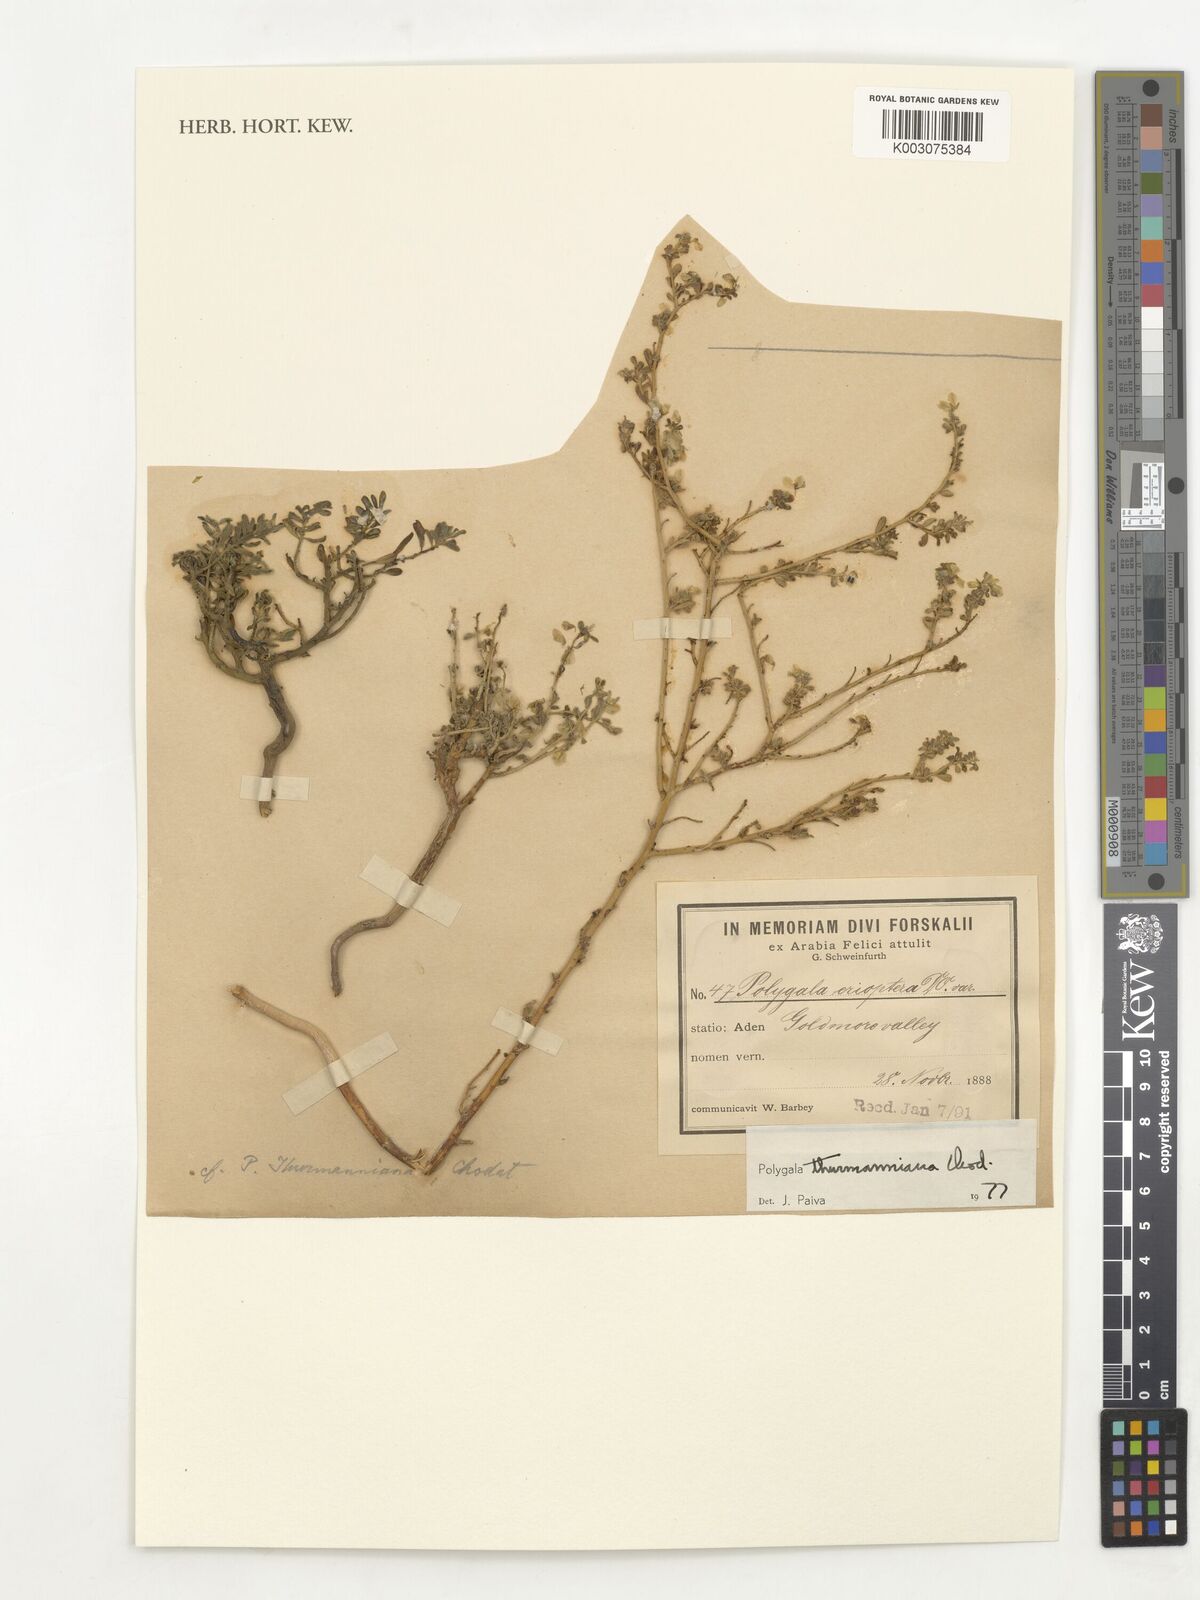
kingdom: Plantae
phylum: Tracheophyta
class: Magnoliopsida
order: Fabales
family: Polygalaceae
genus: Polygala
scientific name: Polygala erioptera
